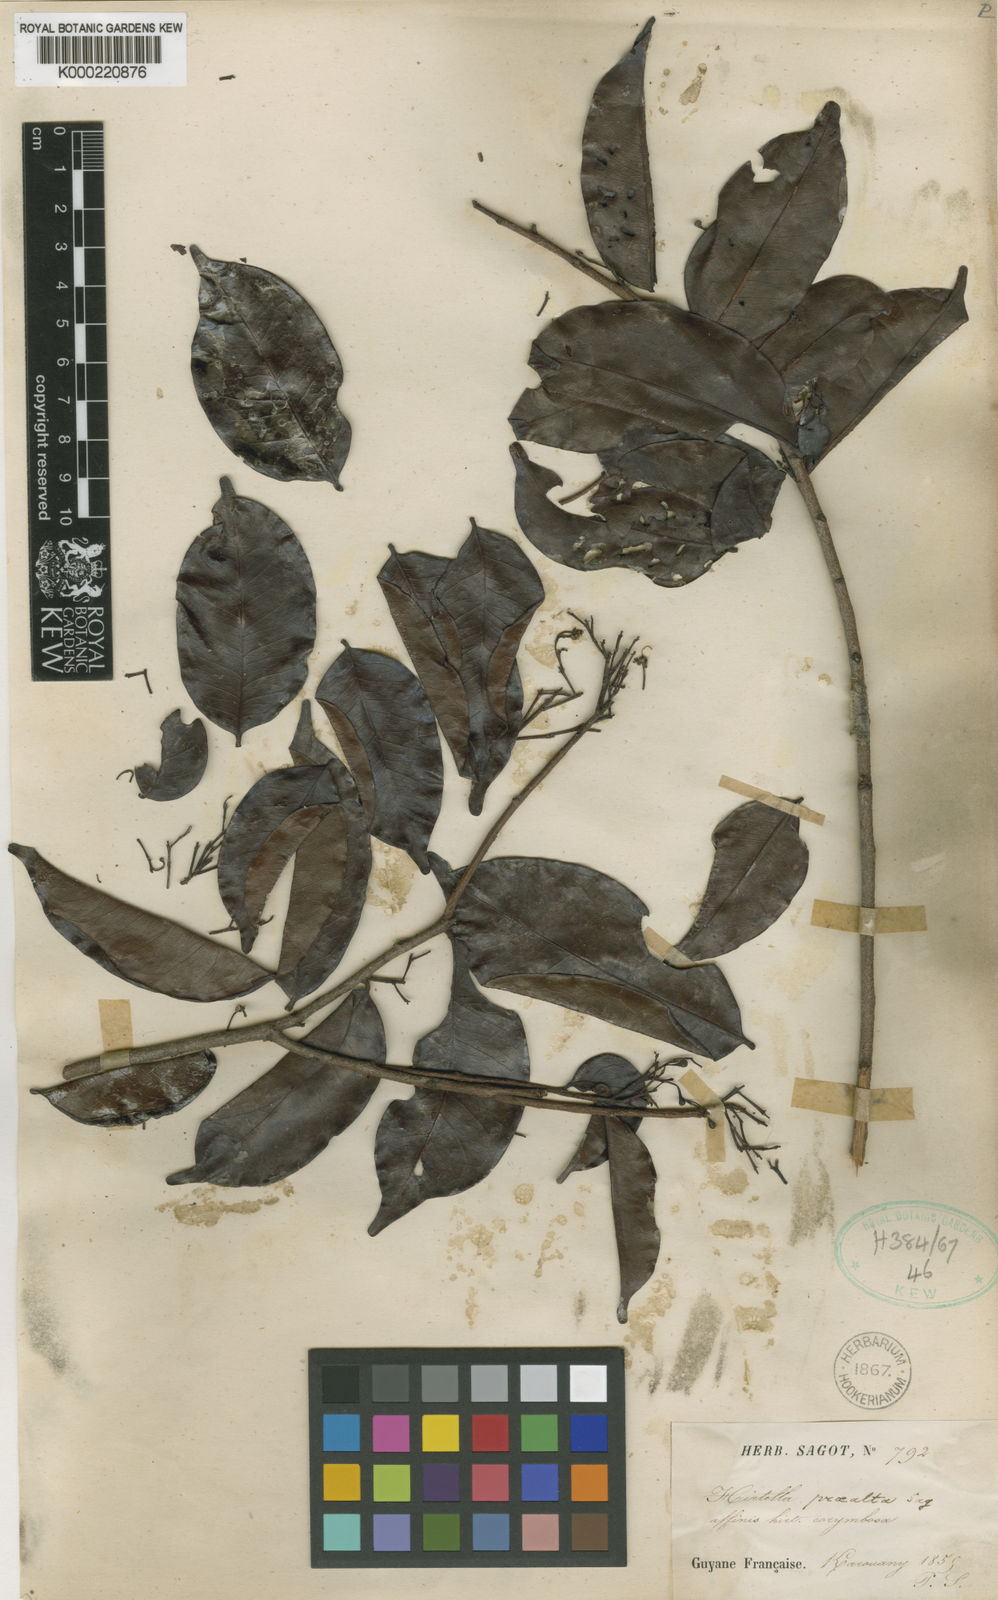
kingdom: Plantae
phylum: Tracheophyta
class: Magnoliopsida
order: Malpighiales
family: Chrysobalanaceae
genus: Hirtella
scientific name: Hirtella bicornis
